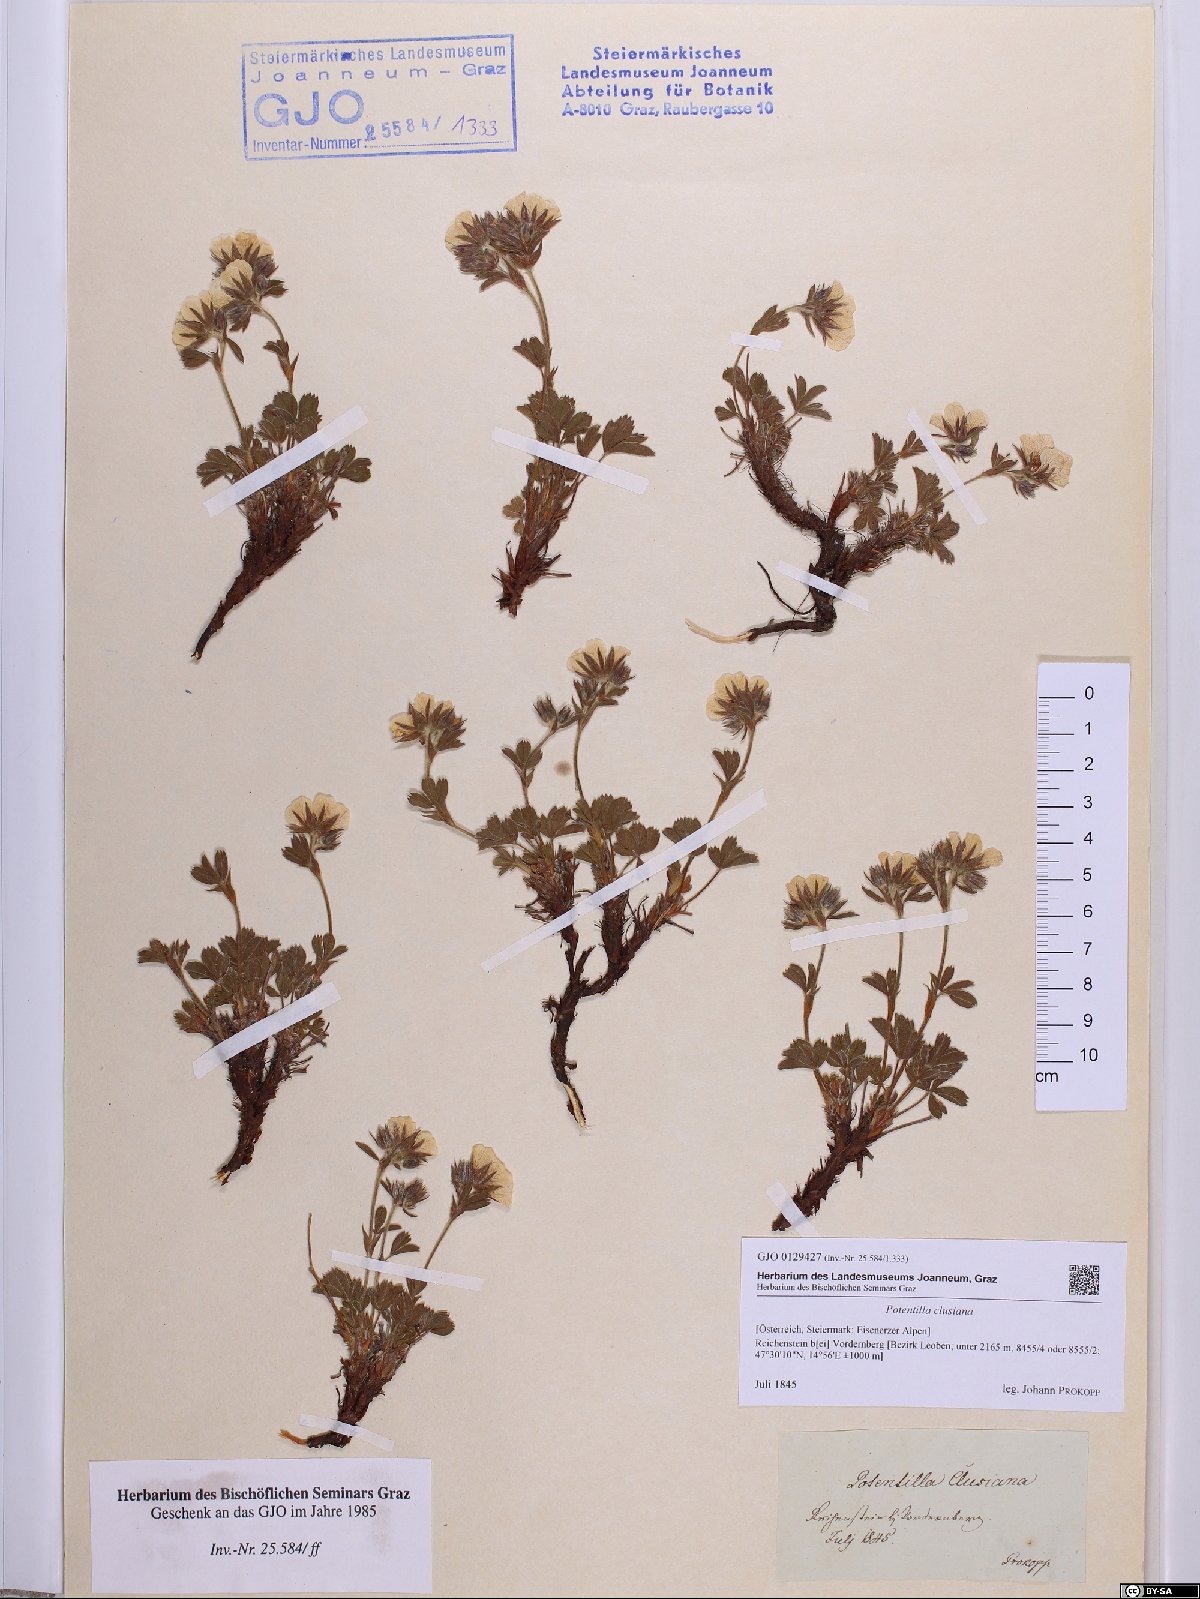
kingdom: Plantae
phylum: Tracheophyta
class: Magnoliopsida
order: Rosales
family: Rosaceae
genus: Potentilla
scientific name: Potentilla clusiana
